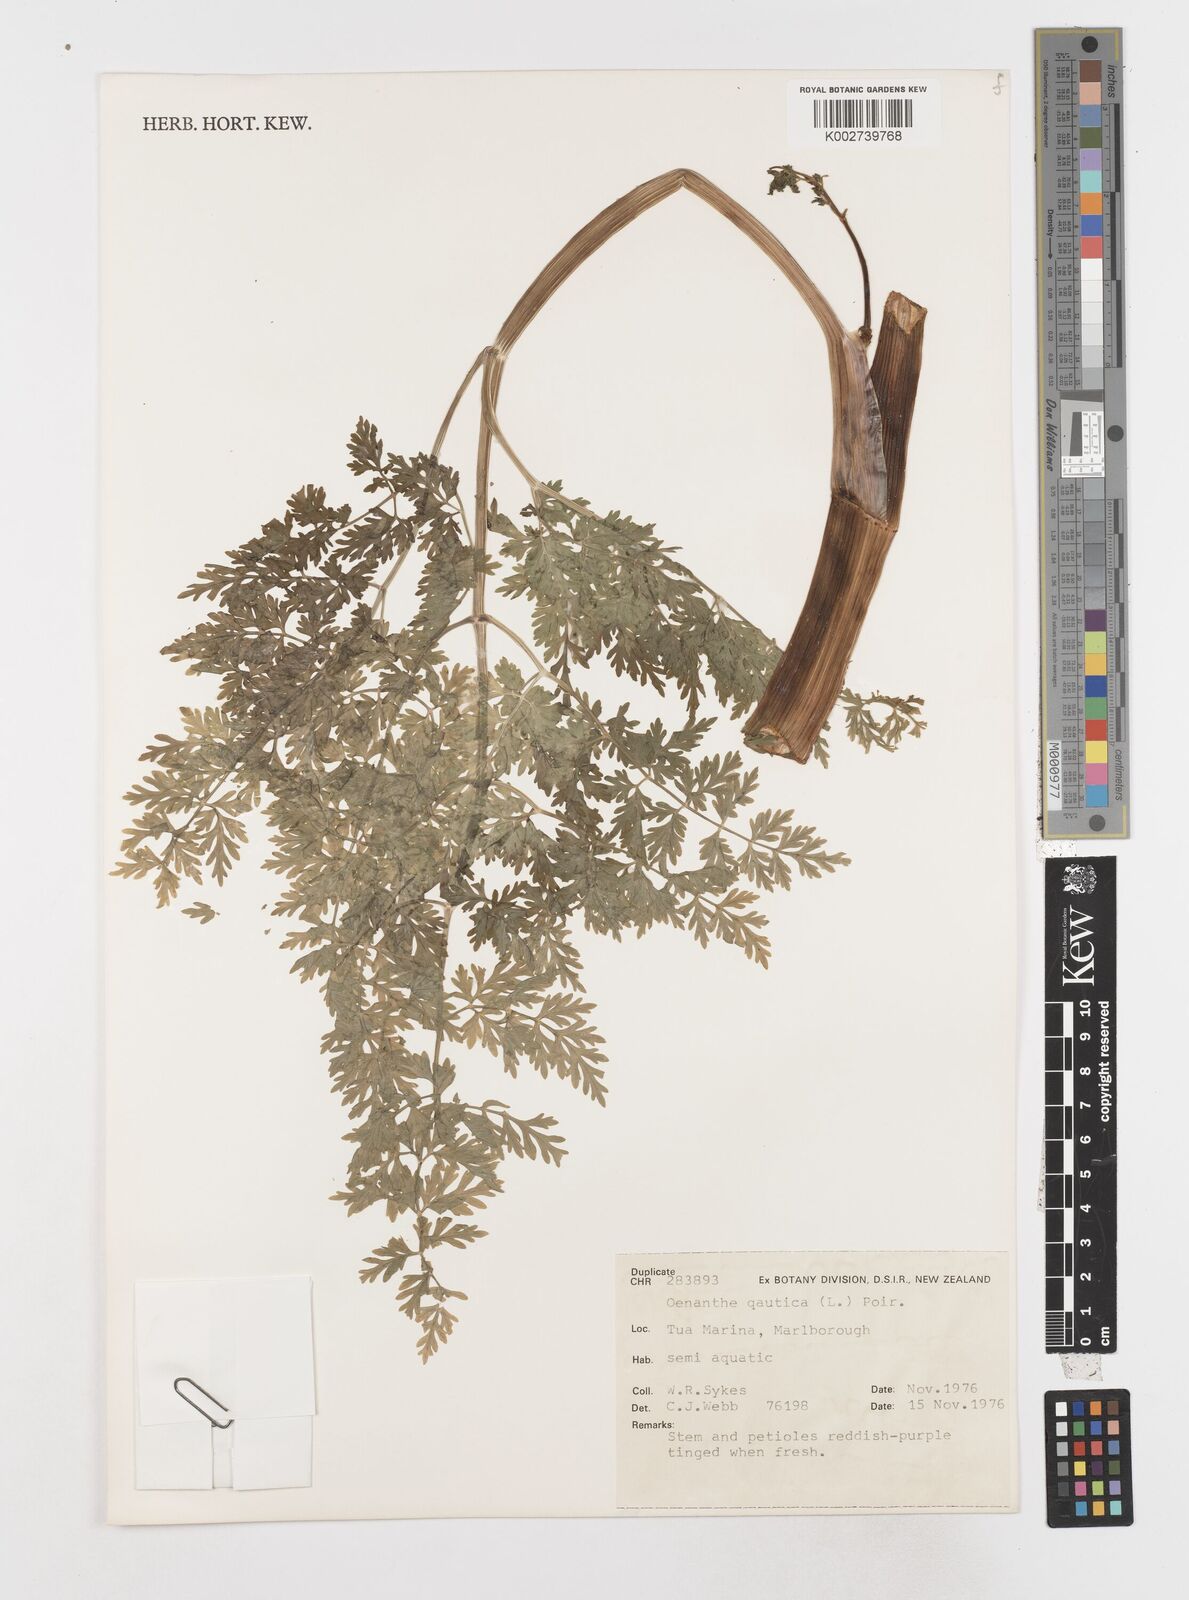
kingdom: Plantae
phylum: Tracheophyta
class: Magnoliopsida
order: Apiales
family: Apiaceae
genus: Oenanthe
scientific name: Oenanthe aquatica
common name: Fine-leaved water-dropwort
